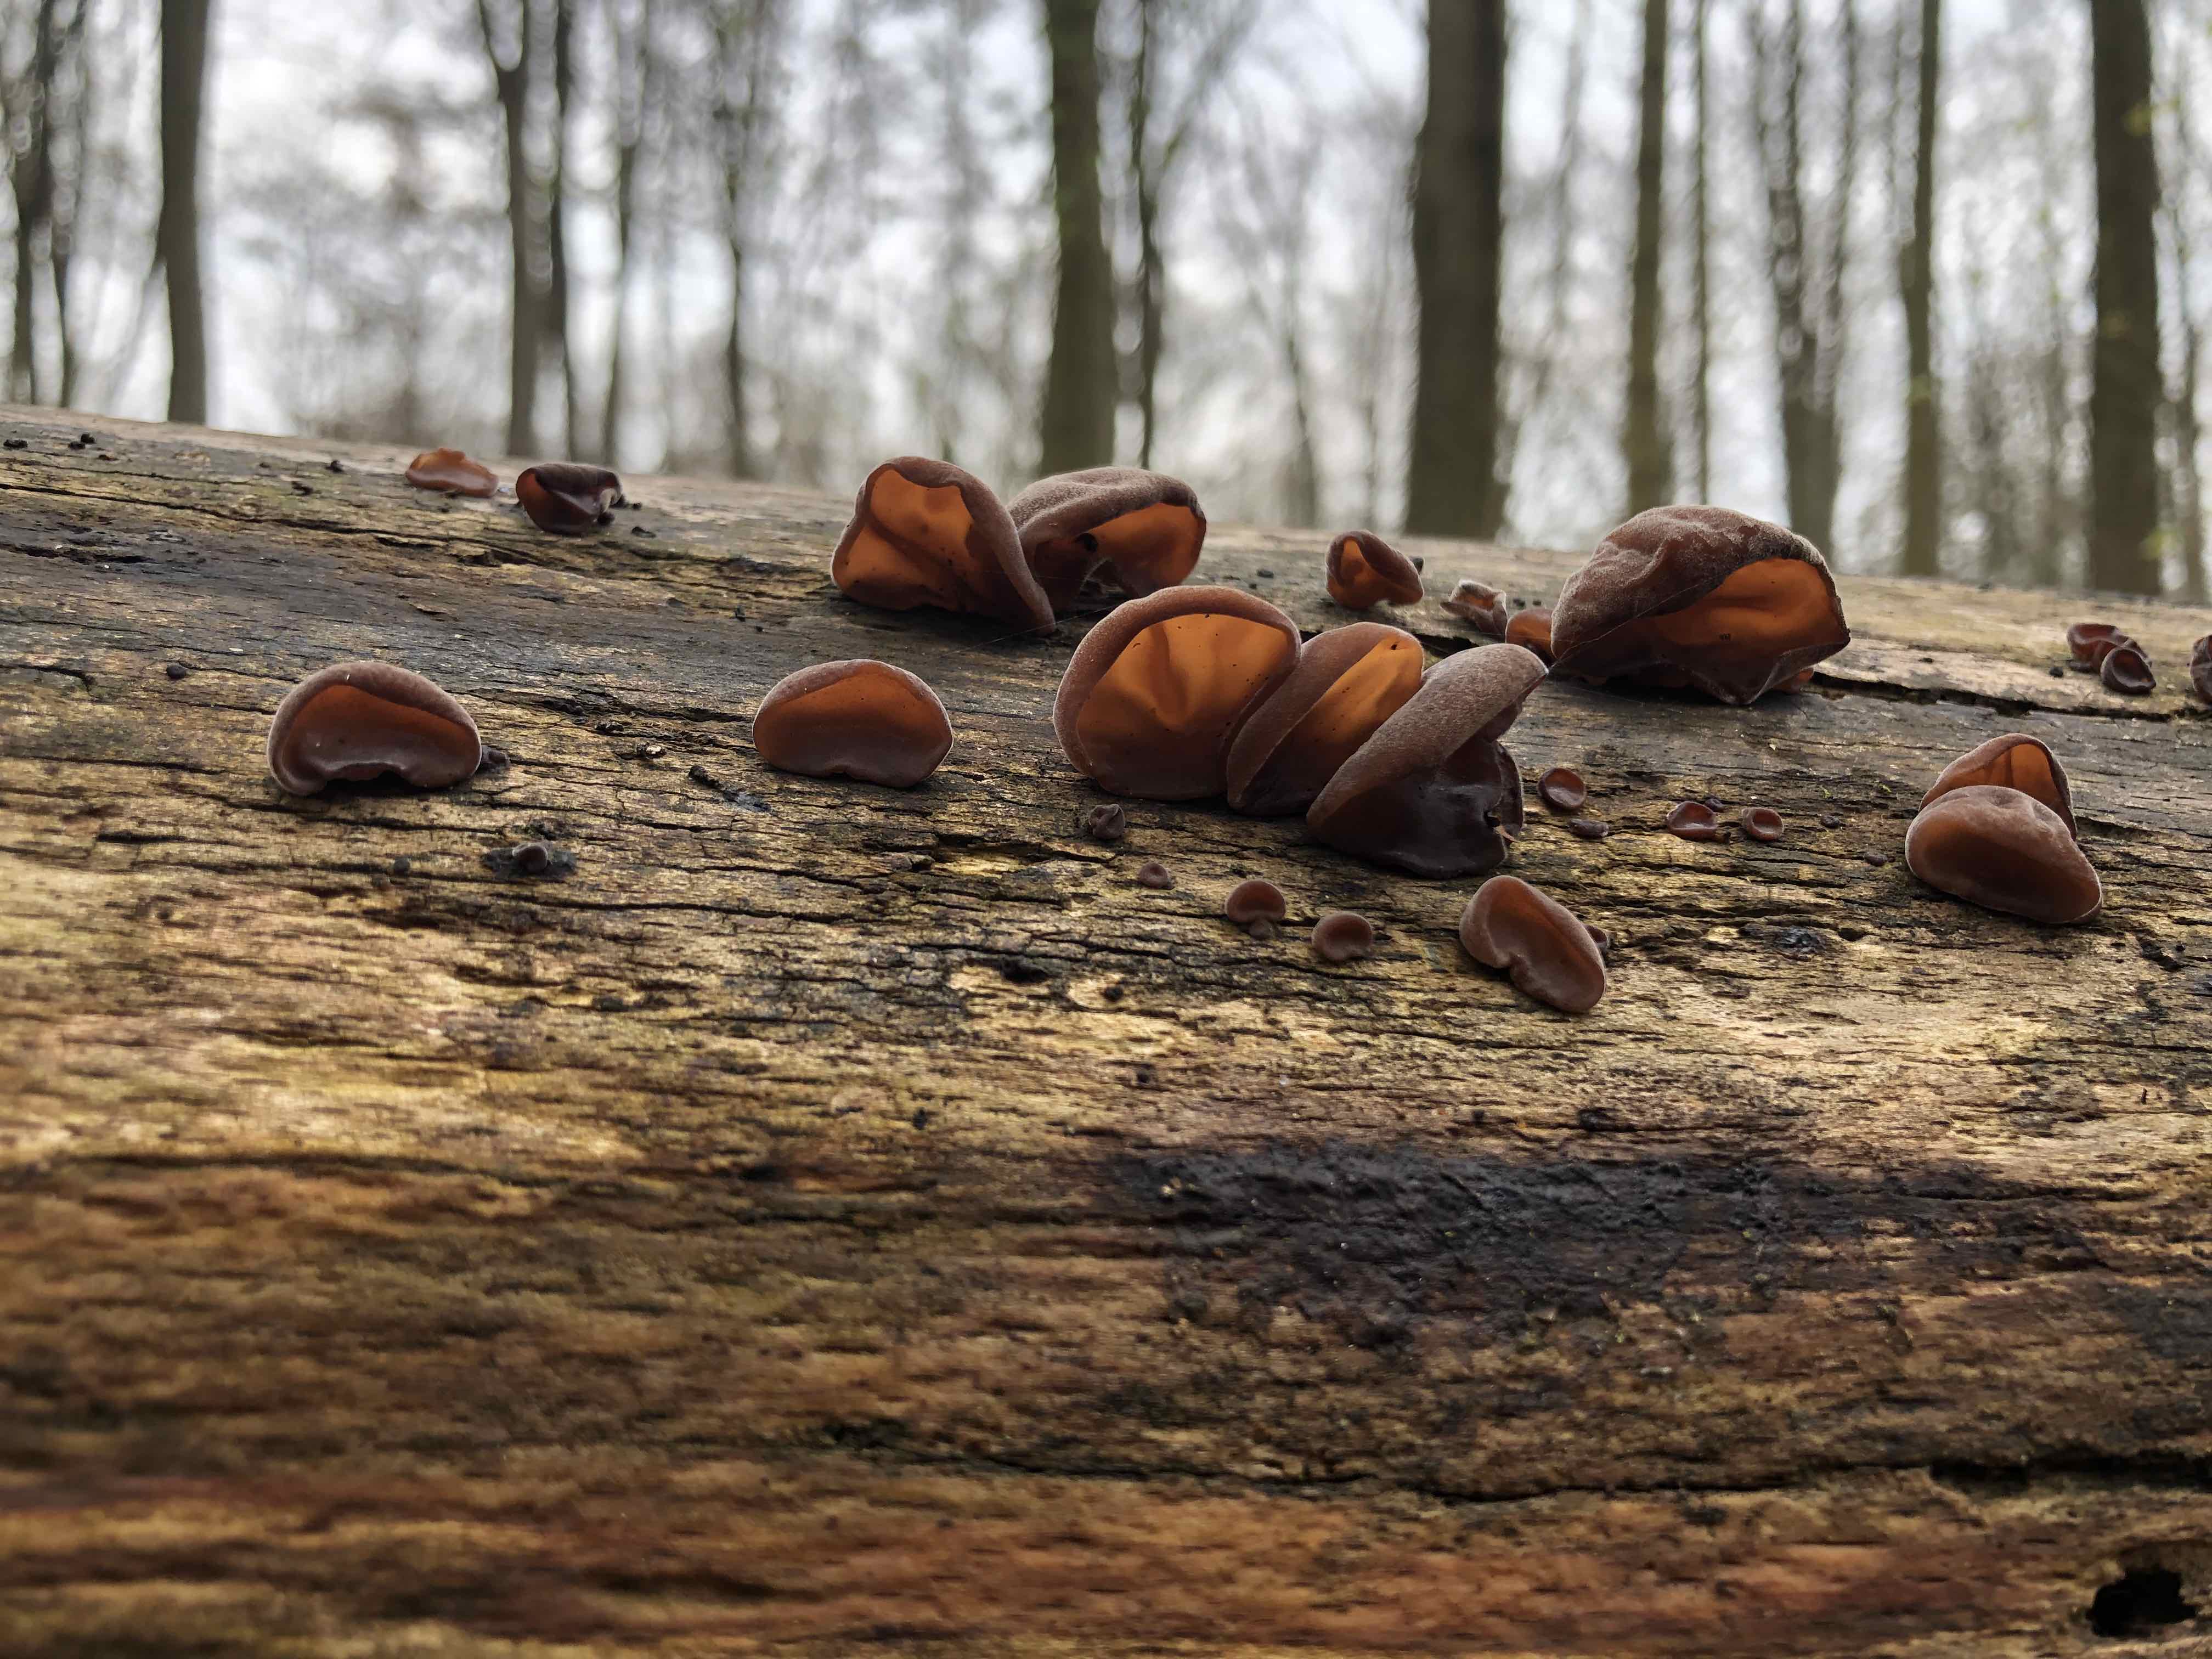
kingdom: Fungi
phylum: Basidiomycota
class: Agaricomycetes
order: Auriculariales
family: Auriculariaceae
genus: Auricularia
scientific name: Auricularia auricula-judae
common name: almindelig judasøre
